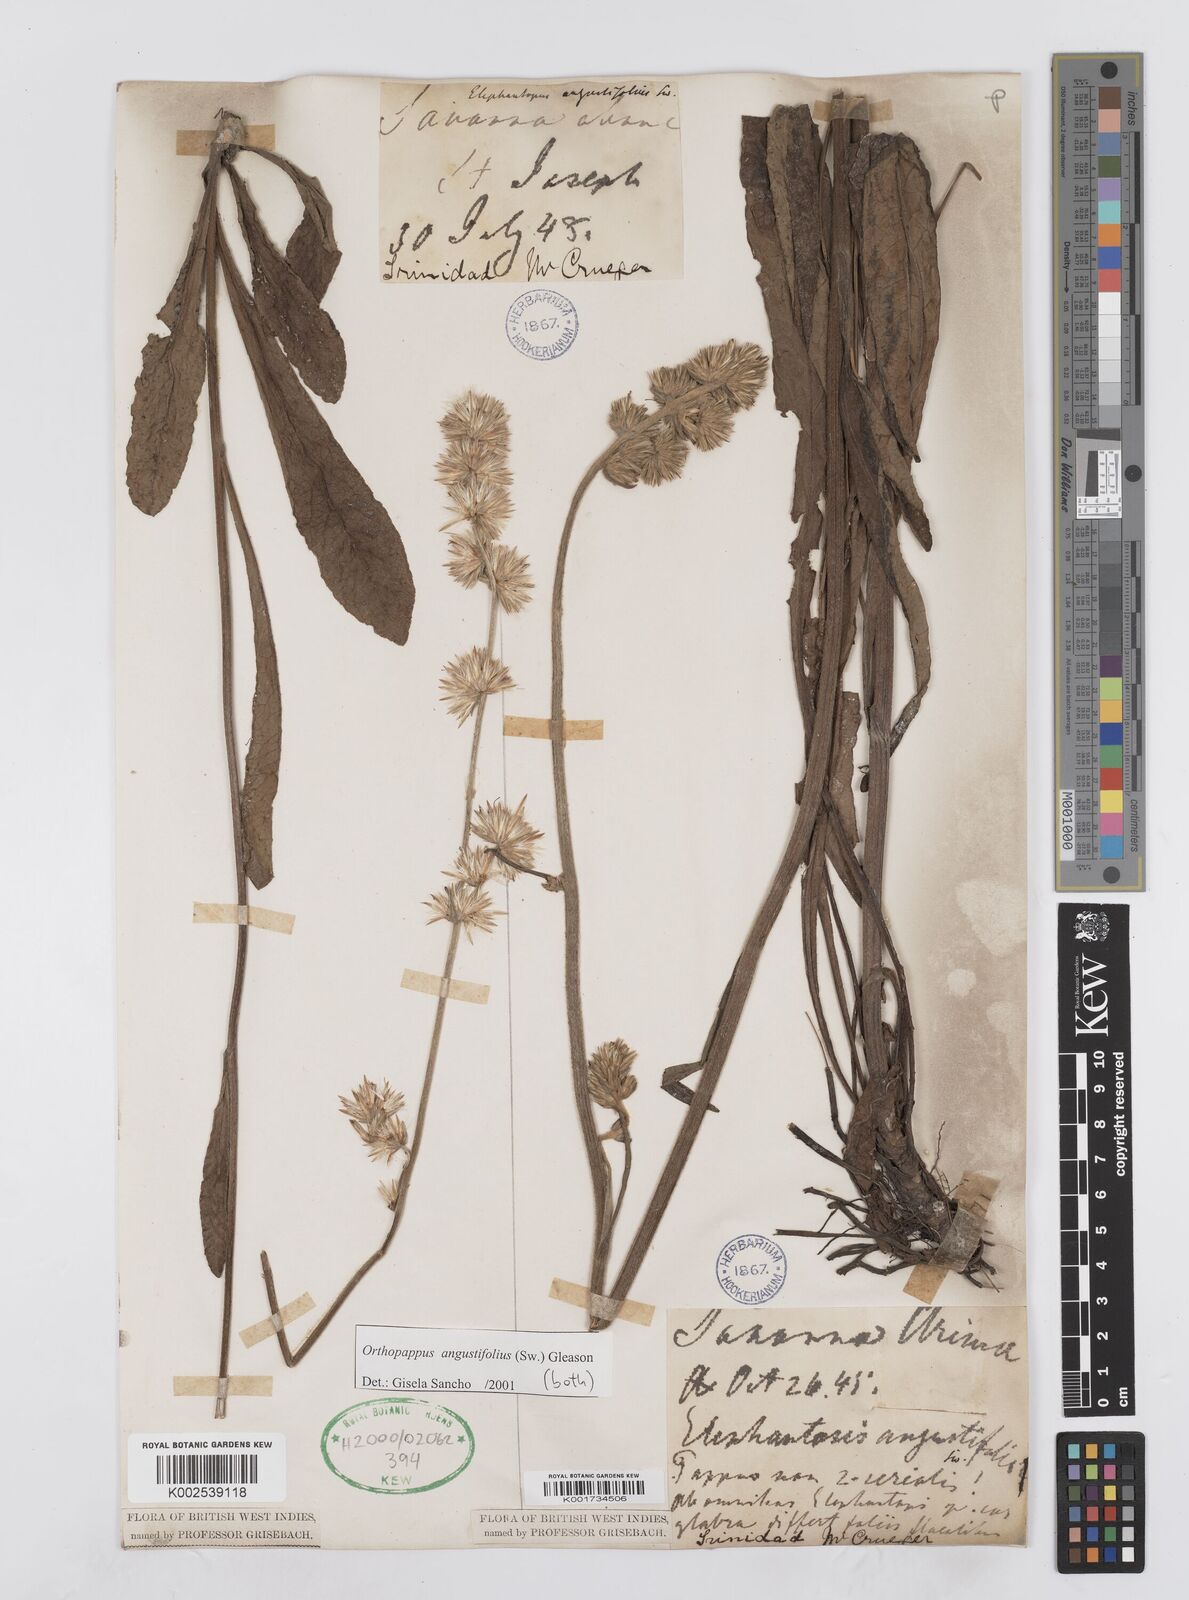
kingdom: Plantae
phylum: Tracheophyta
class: Magnoliopsida
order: Asterales
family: Asteraceae
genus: Orthopappus
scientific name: Orthopappus angustifolius
